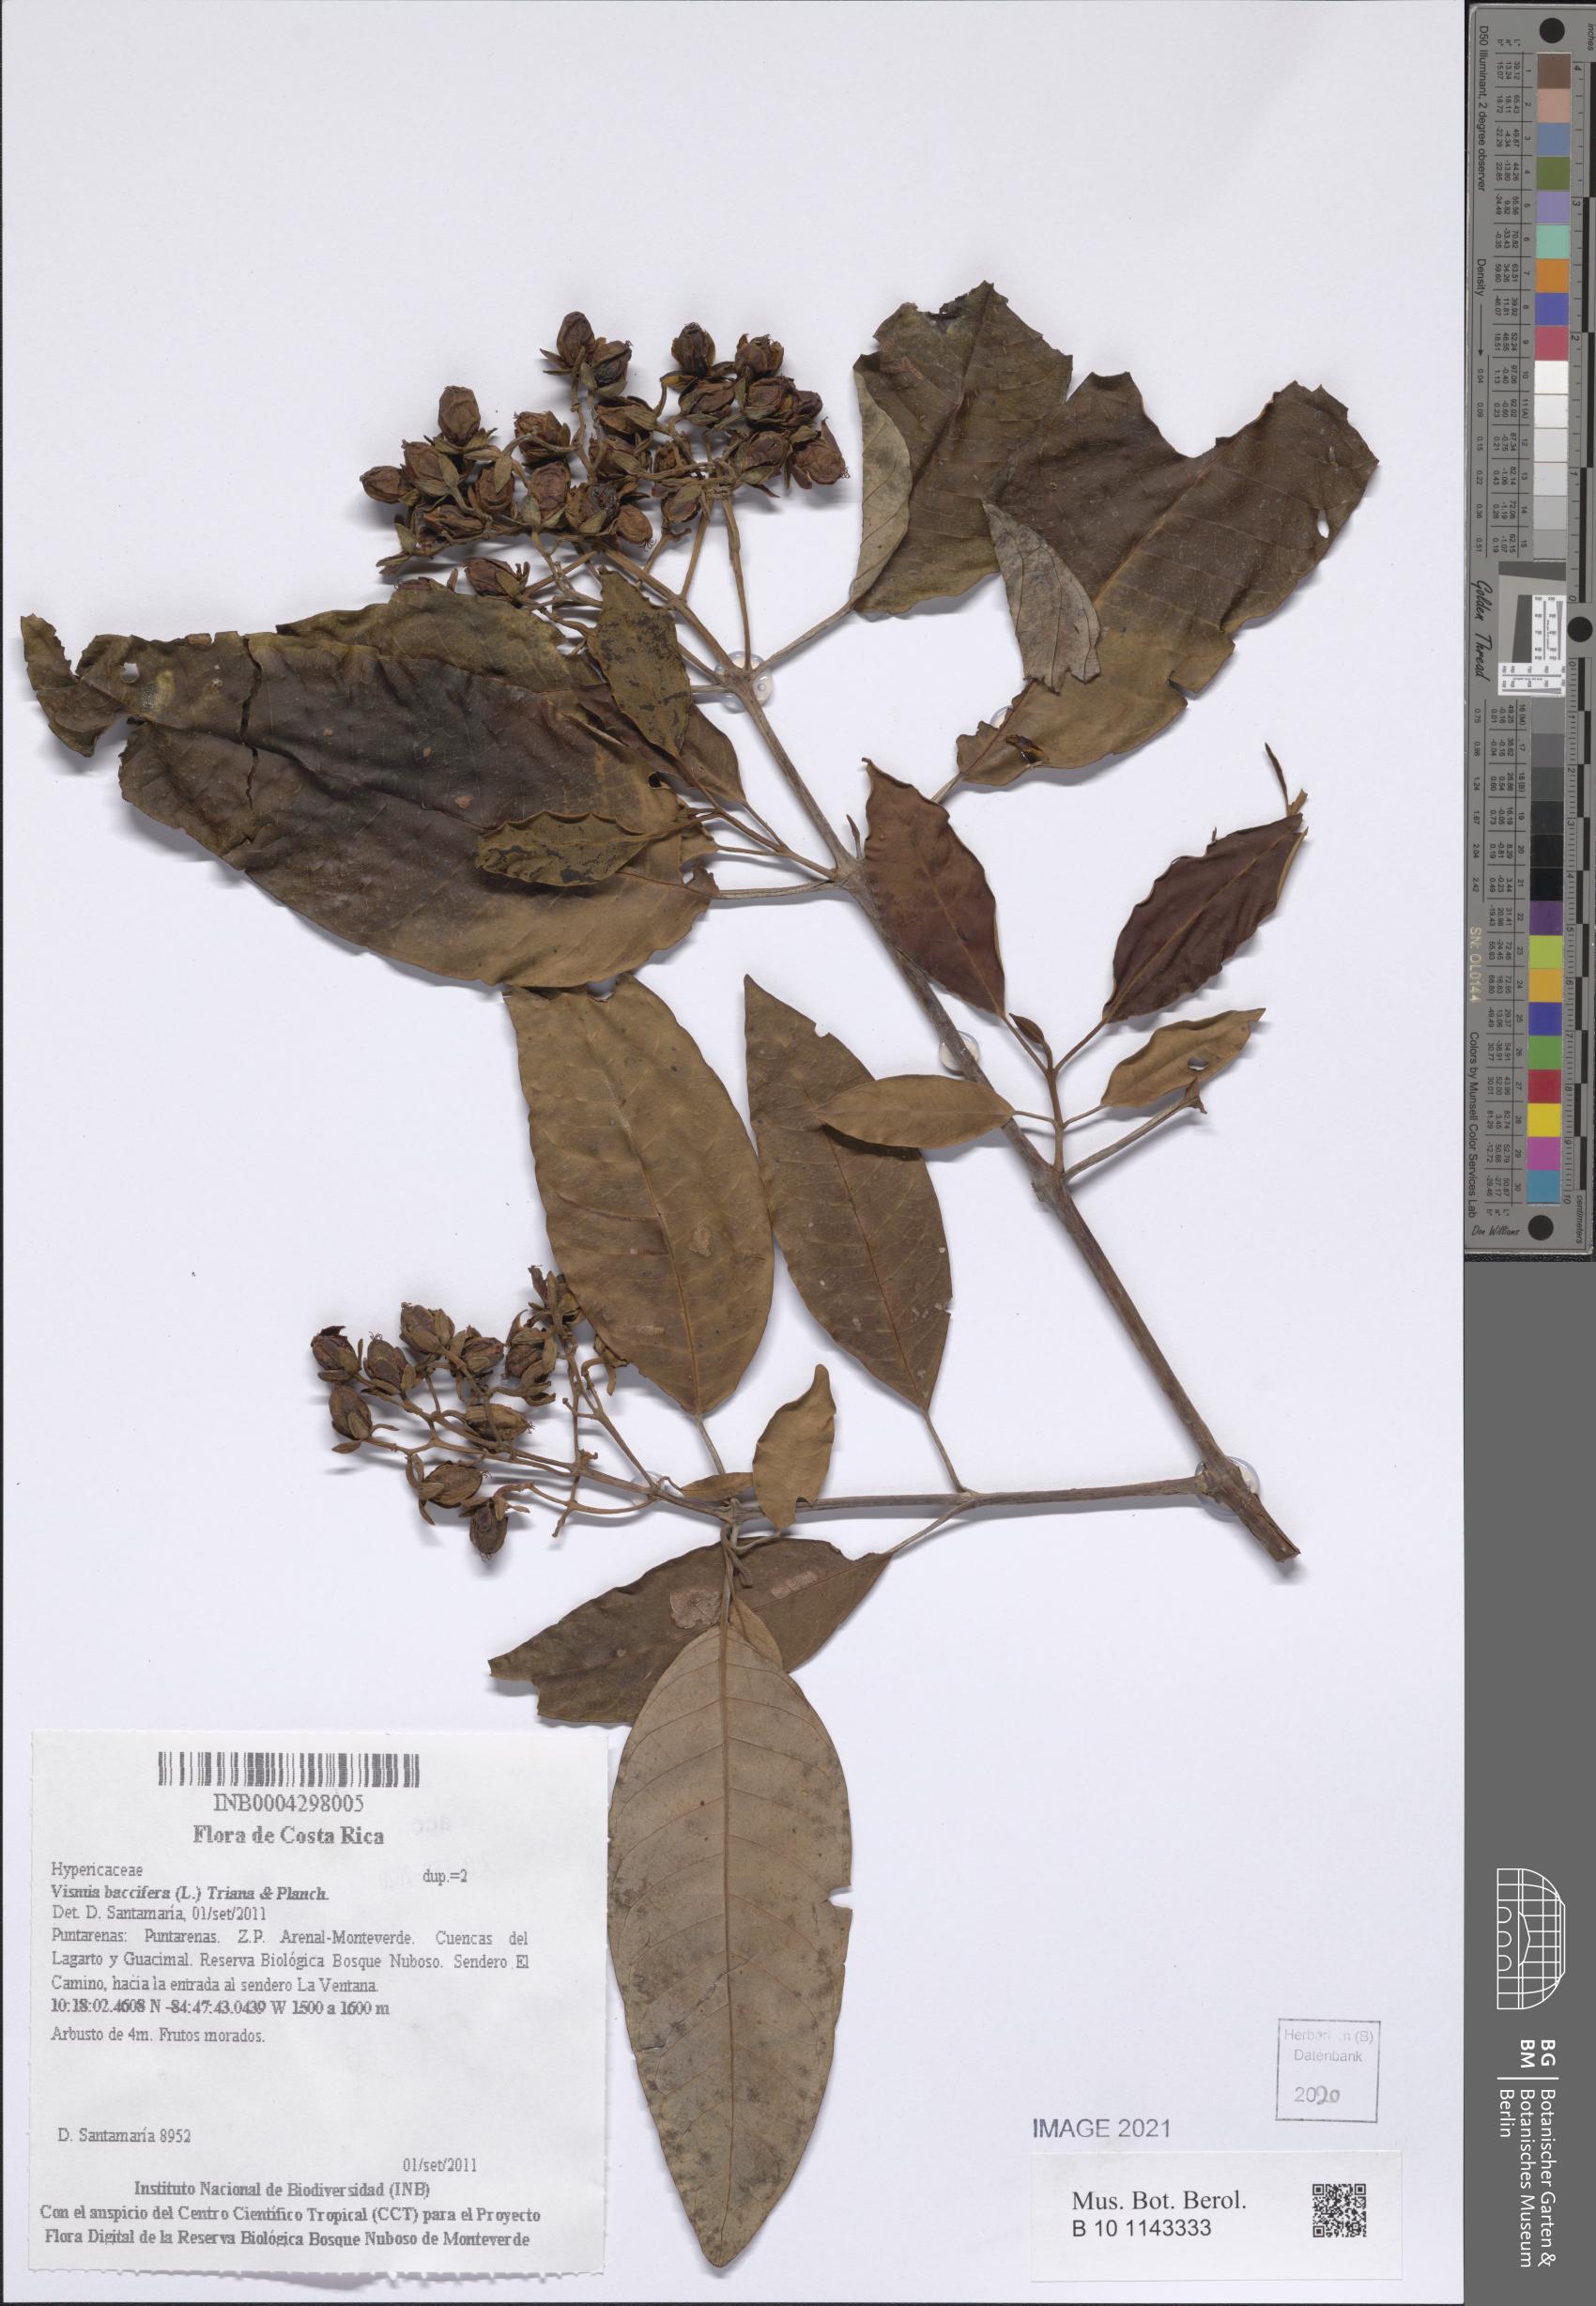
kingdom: Plantae
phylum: Tracheophyta
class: Magnoliopsida
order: Malpighiales
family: Hypericaceae
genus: Vismia
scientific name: Vismia baccifera
